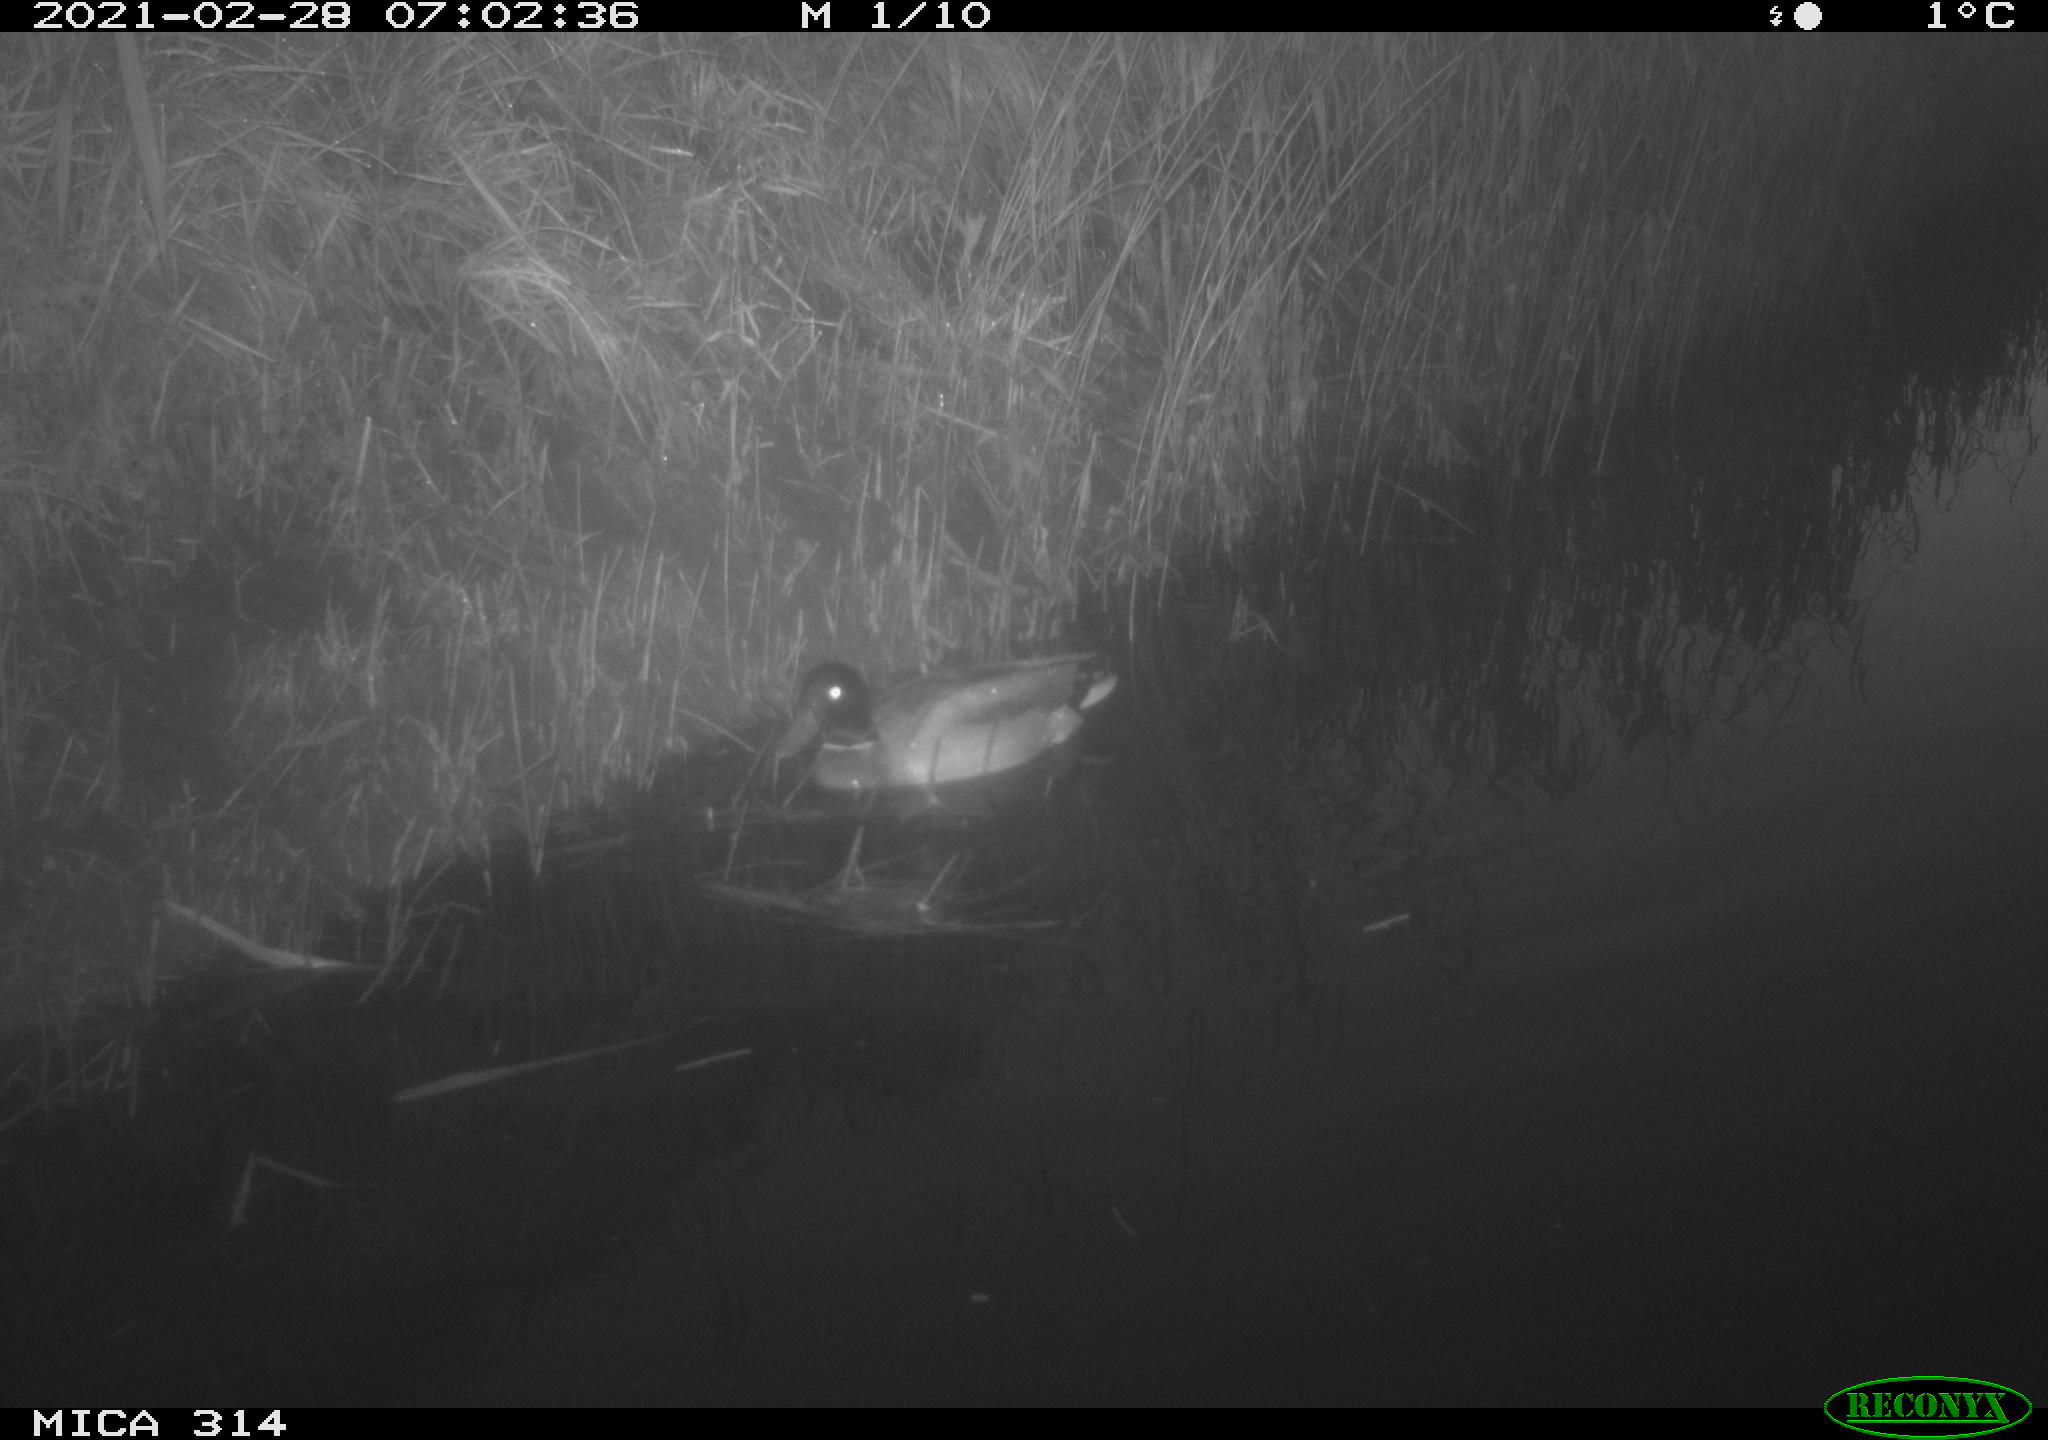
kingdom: Animalia
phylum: Chordata
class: Aves
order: Anseriformes
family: Anatidae
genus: Anas
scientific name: Anas platyrhynchos
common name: Mallard
